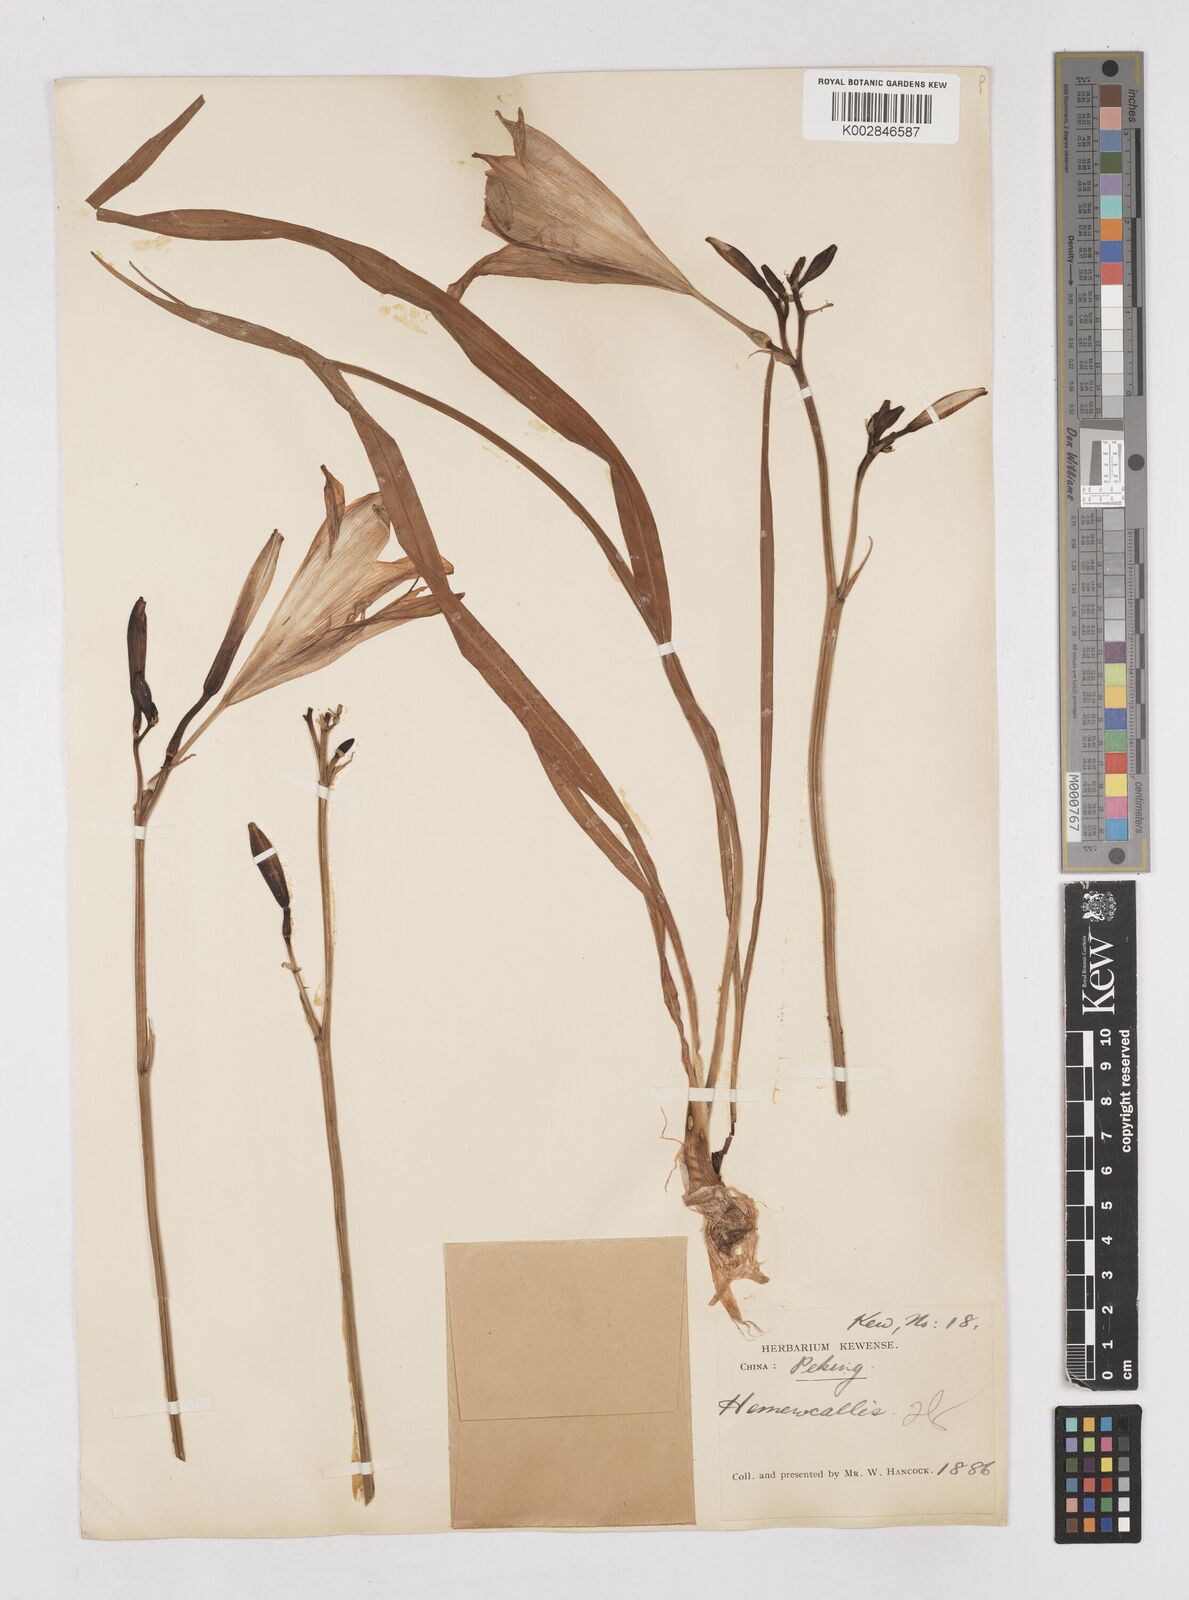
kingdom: Plantae
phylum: Tracheophyta
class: Liliopsida
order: Asparagales
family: Asphodelaceae
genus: Hemerocallis
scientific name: Hemerocallis minor
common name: Small daylily
